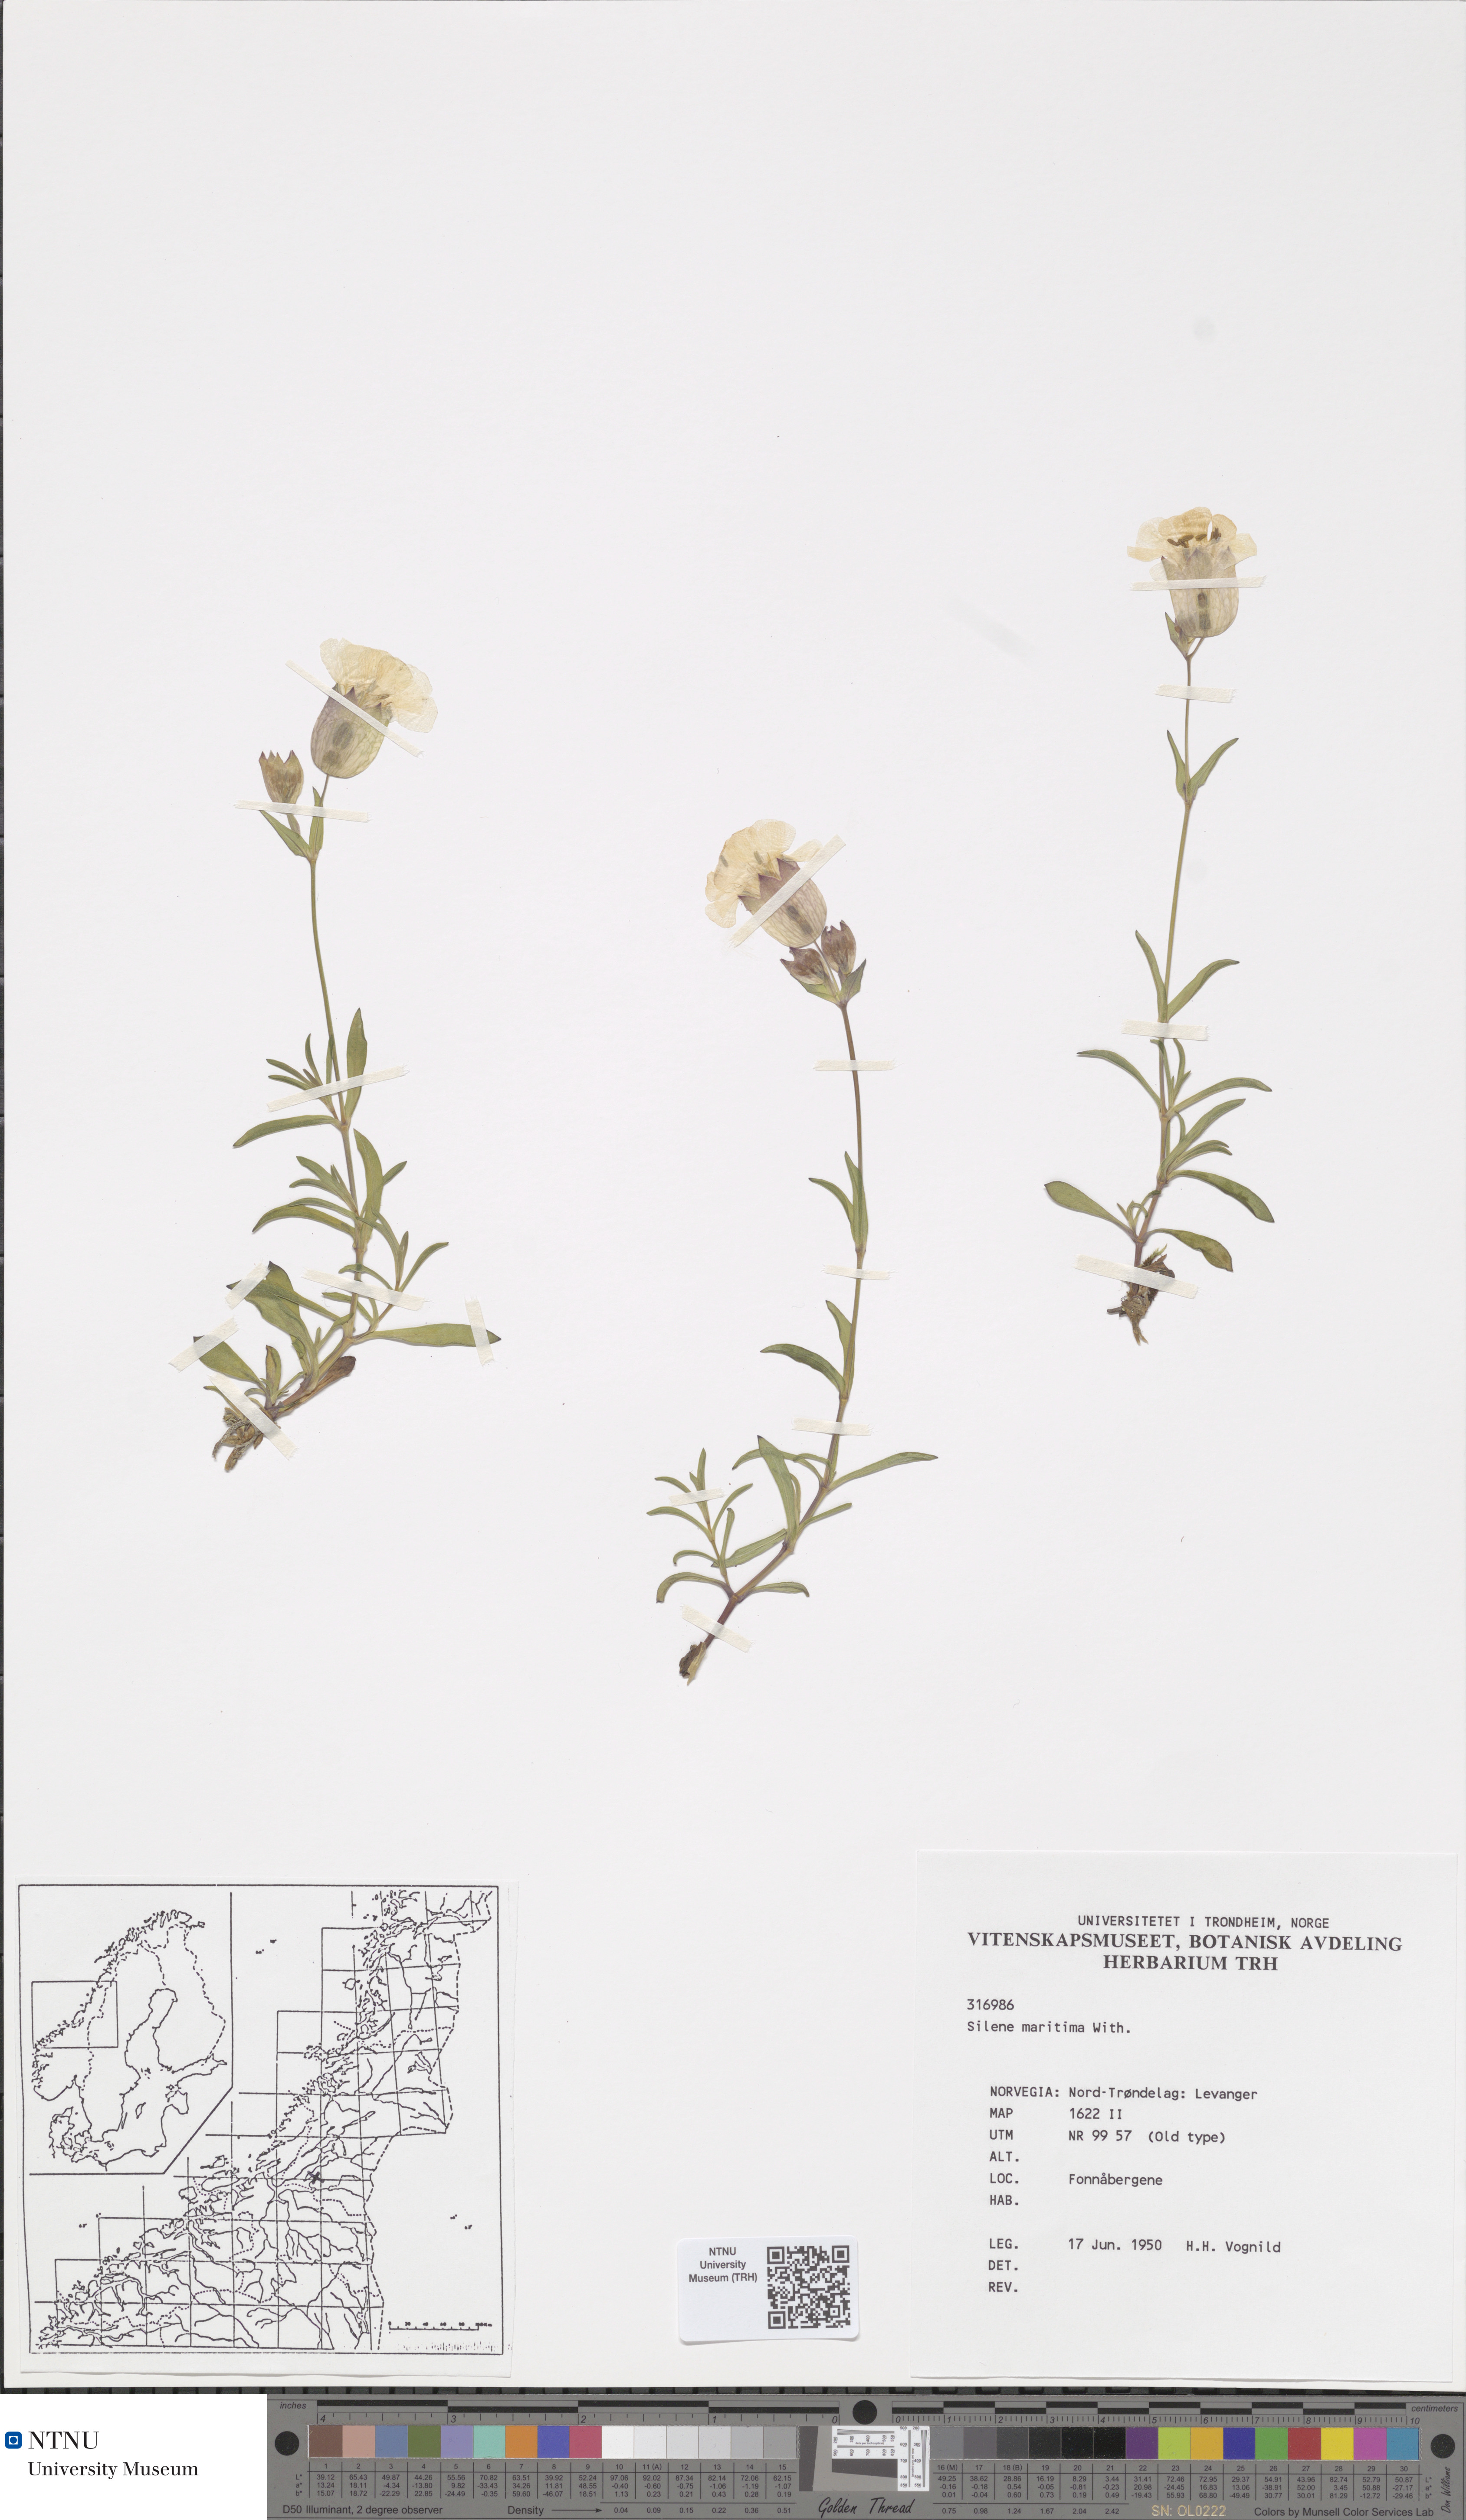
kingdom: Plantae
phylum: Tracheophyta
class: Magnoliopsida
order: Caryophyllales
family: Caryophyllaceae
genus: Silene
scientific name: Silene uniflora
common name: Sea campion
